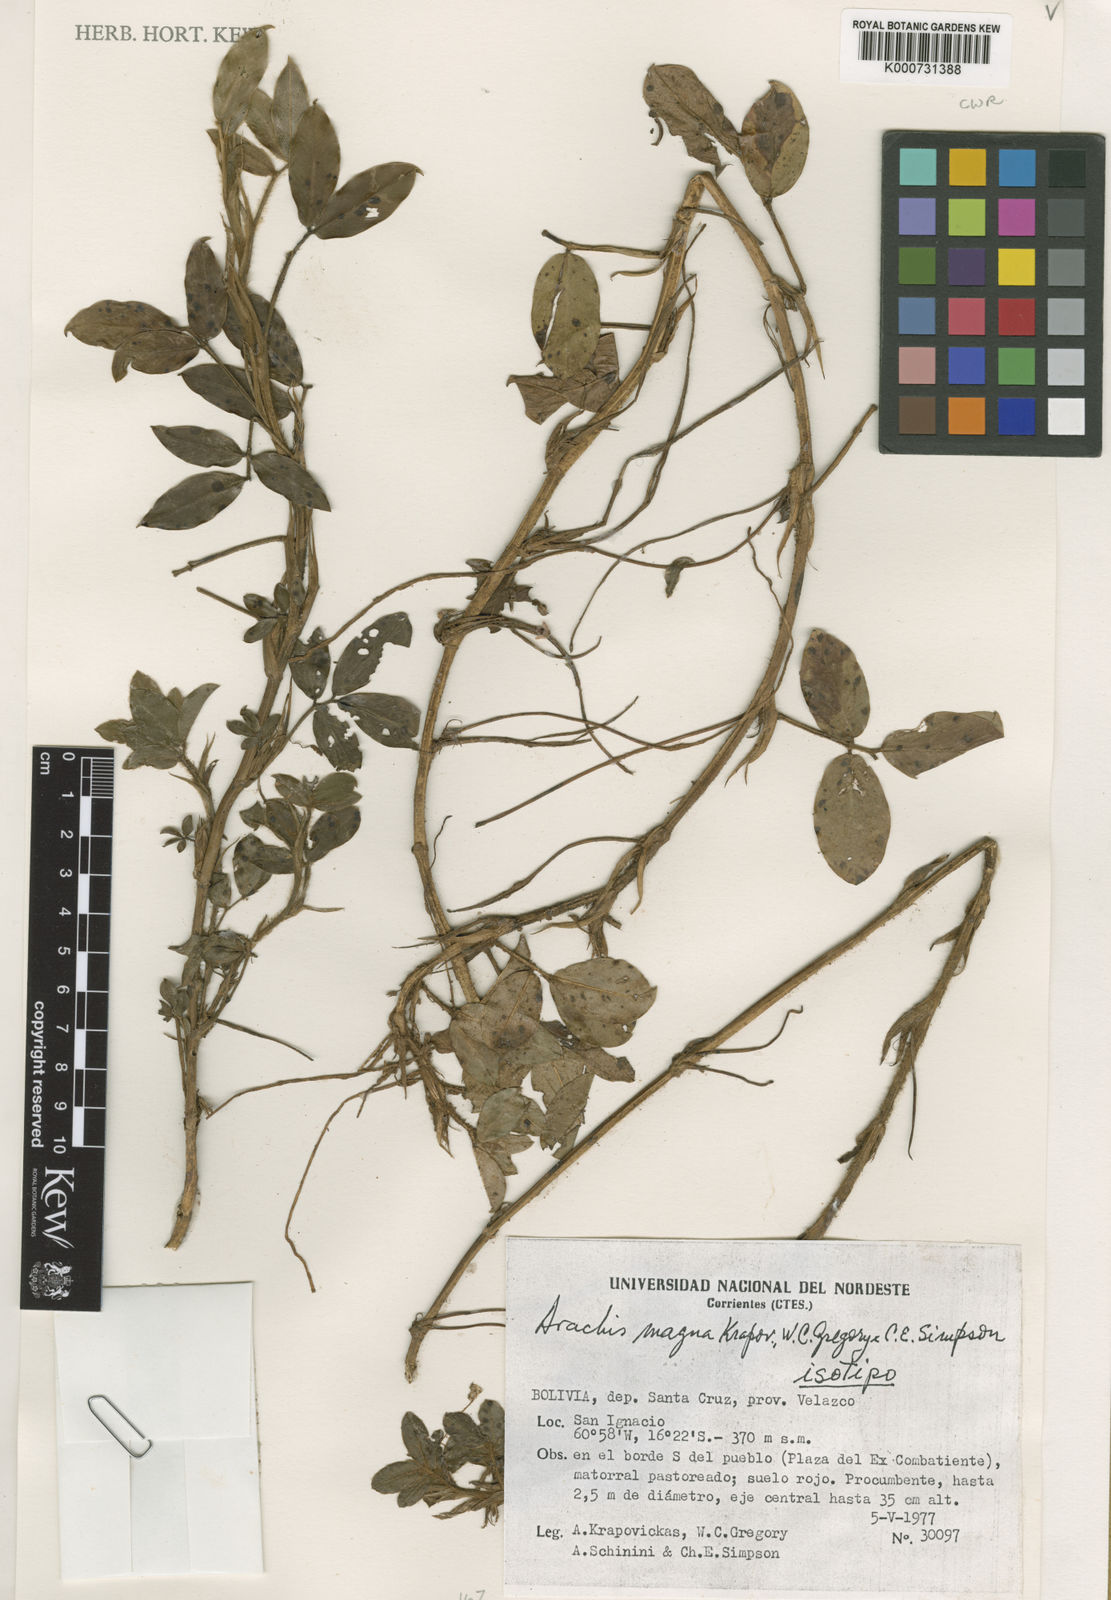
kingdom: Plantae
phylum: Tracheophyta
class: Magnoliopsida
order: Fabales
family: Fabaceae
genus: Arachis
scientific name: Arachis magna
